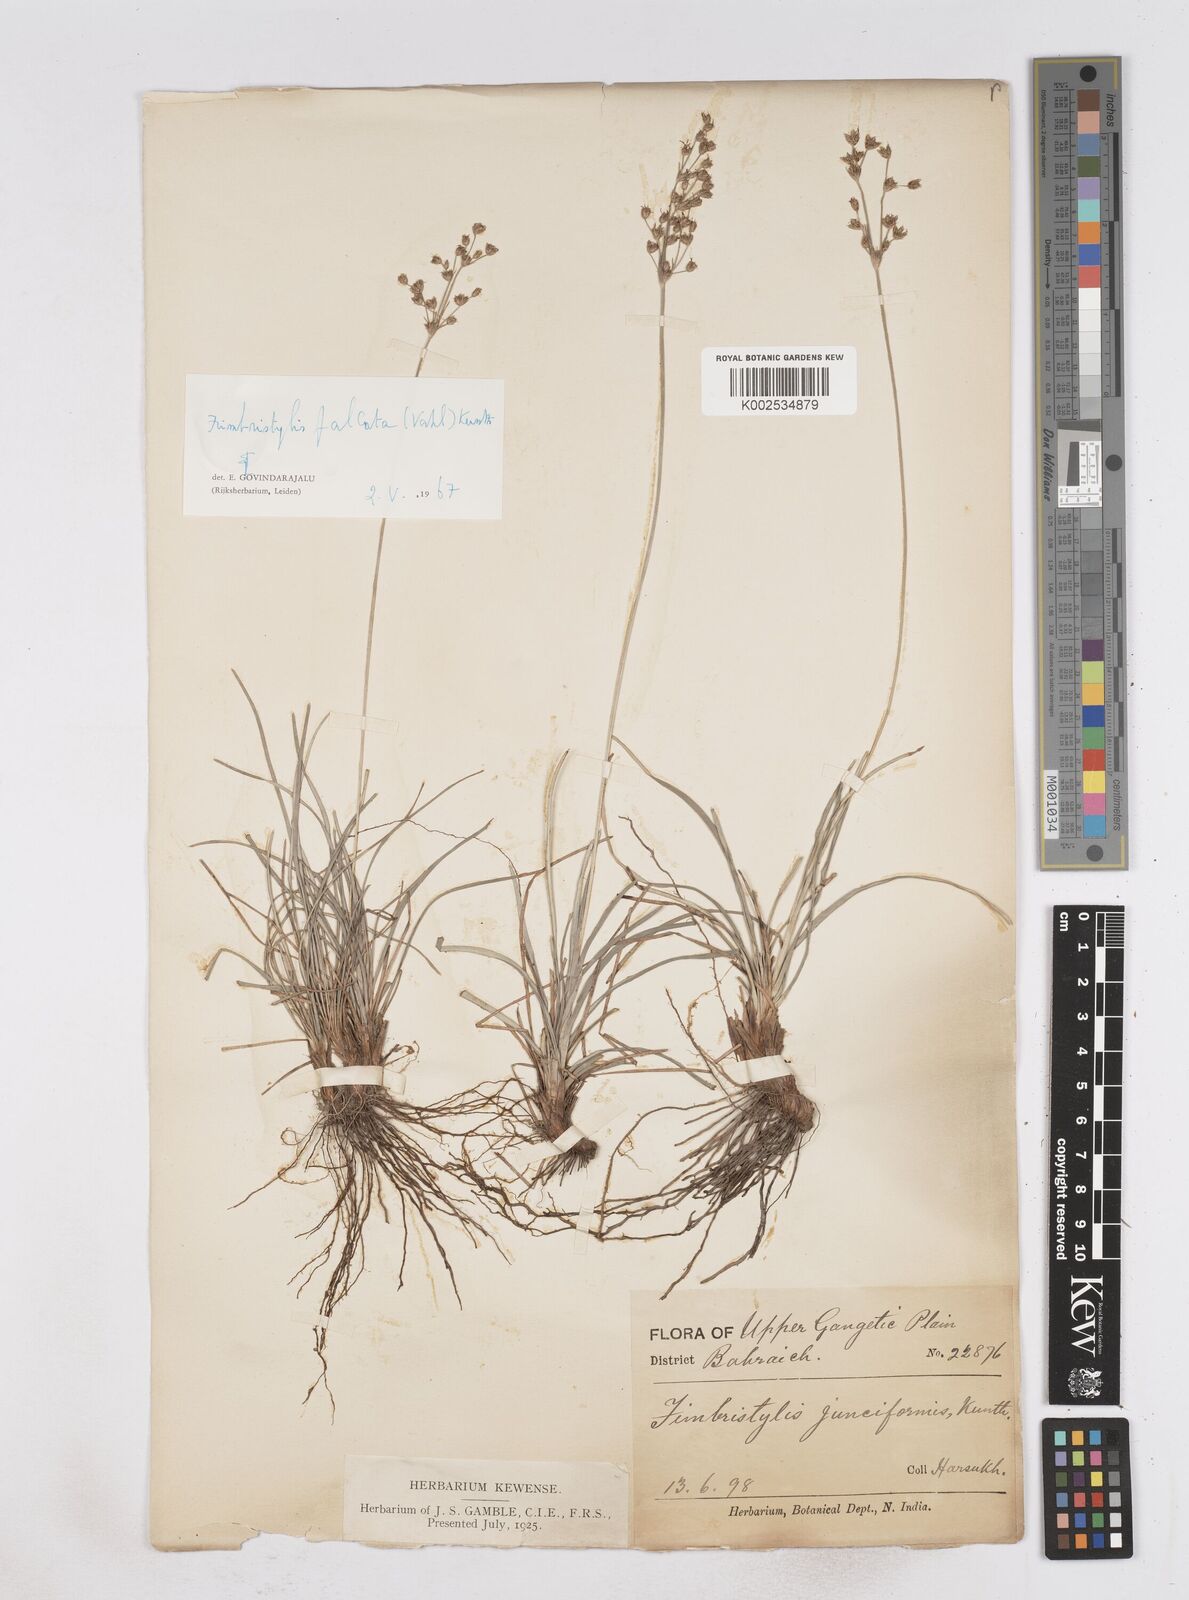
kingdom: Plantae
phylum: Tracheophyta
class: Liliopsida
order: Poales
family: Cyperaceae
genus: Fimbristylis
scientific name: Fimbristylis falcata
